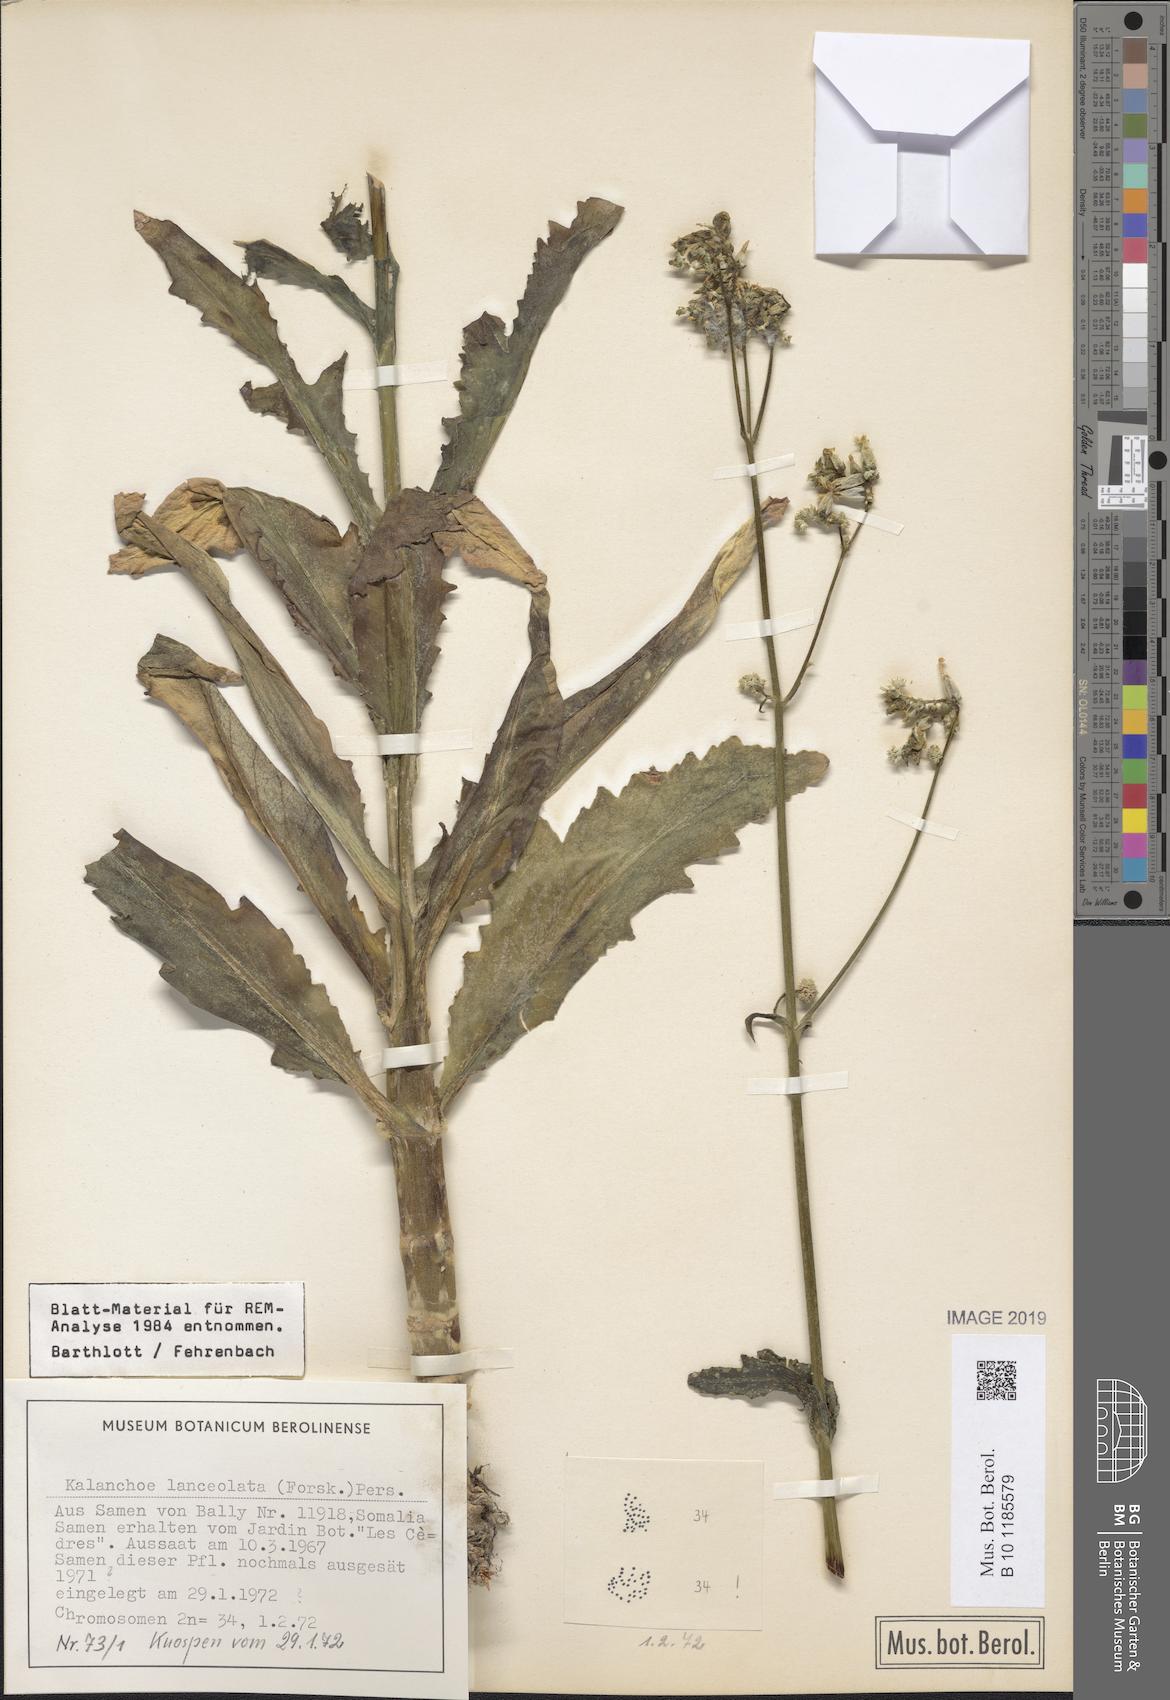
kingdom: Plantae
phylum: Tracheophyta
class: Magnoliopsida
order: Saxifragales
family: Crassulaceae
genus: Kalanchoe
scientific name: Kalanchoe lanceolata
